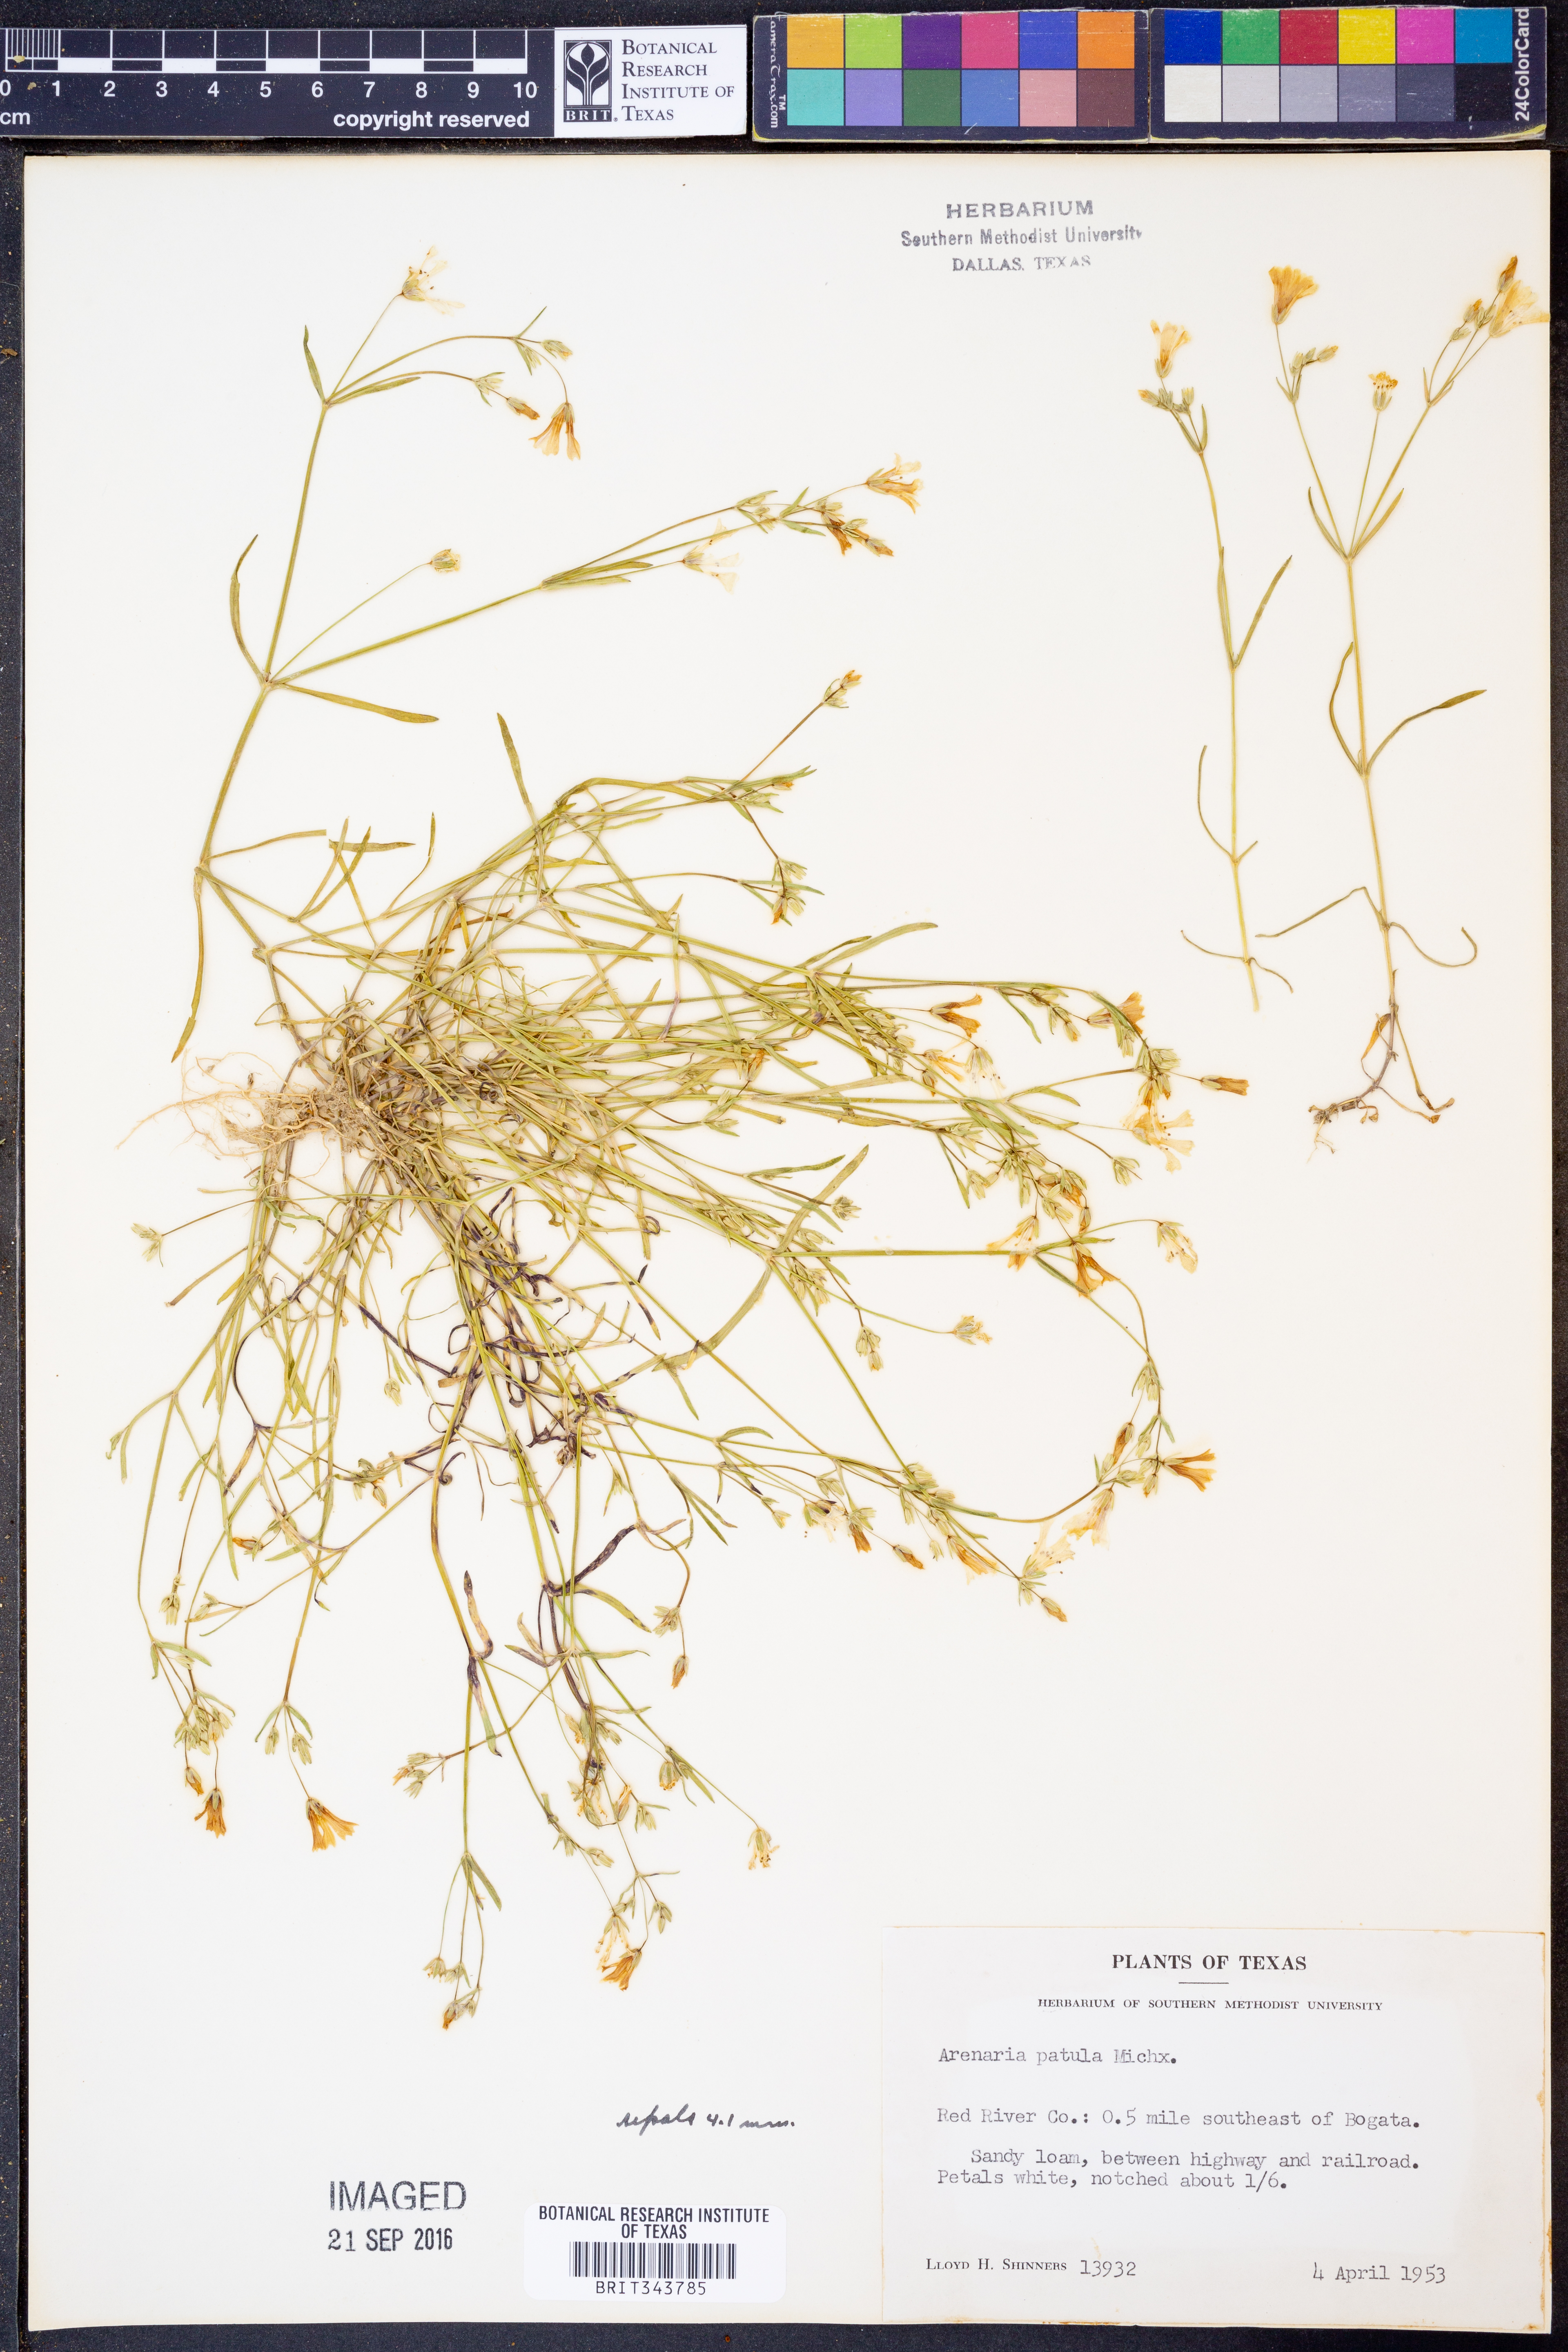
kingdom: Plantae
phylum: Tracheophyta
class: Magnoliopsida
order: Caryophyllales
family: Caryophyllaceae
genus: Mononeuria
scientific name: Mononeuria patula
